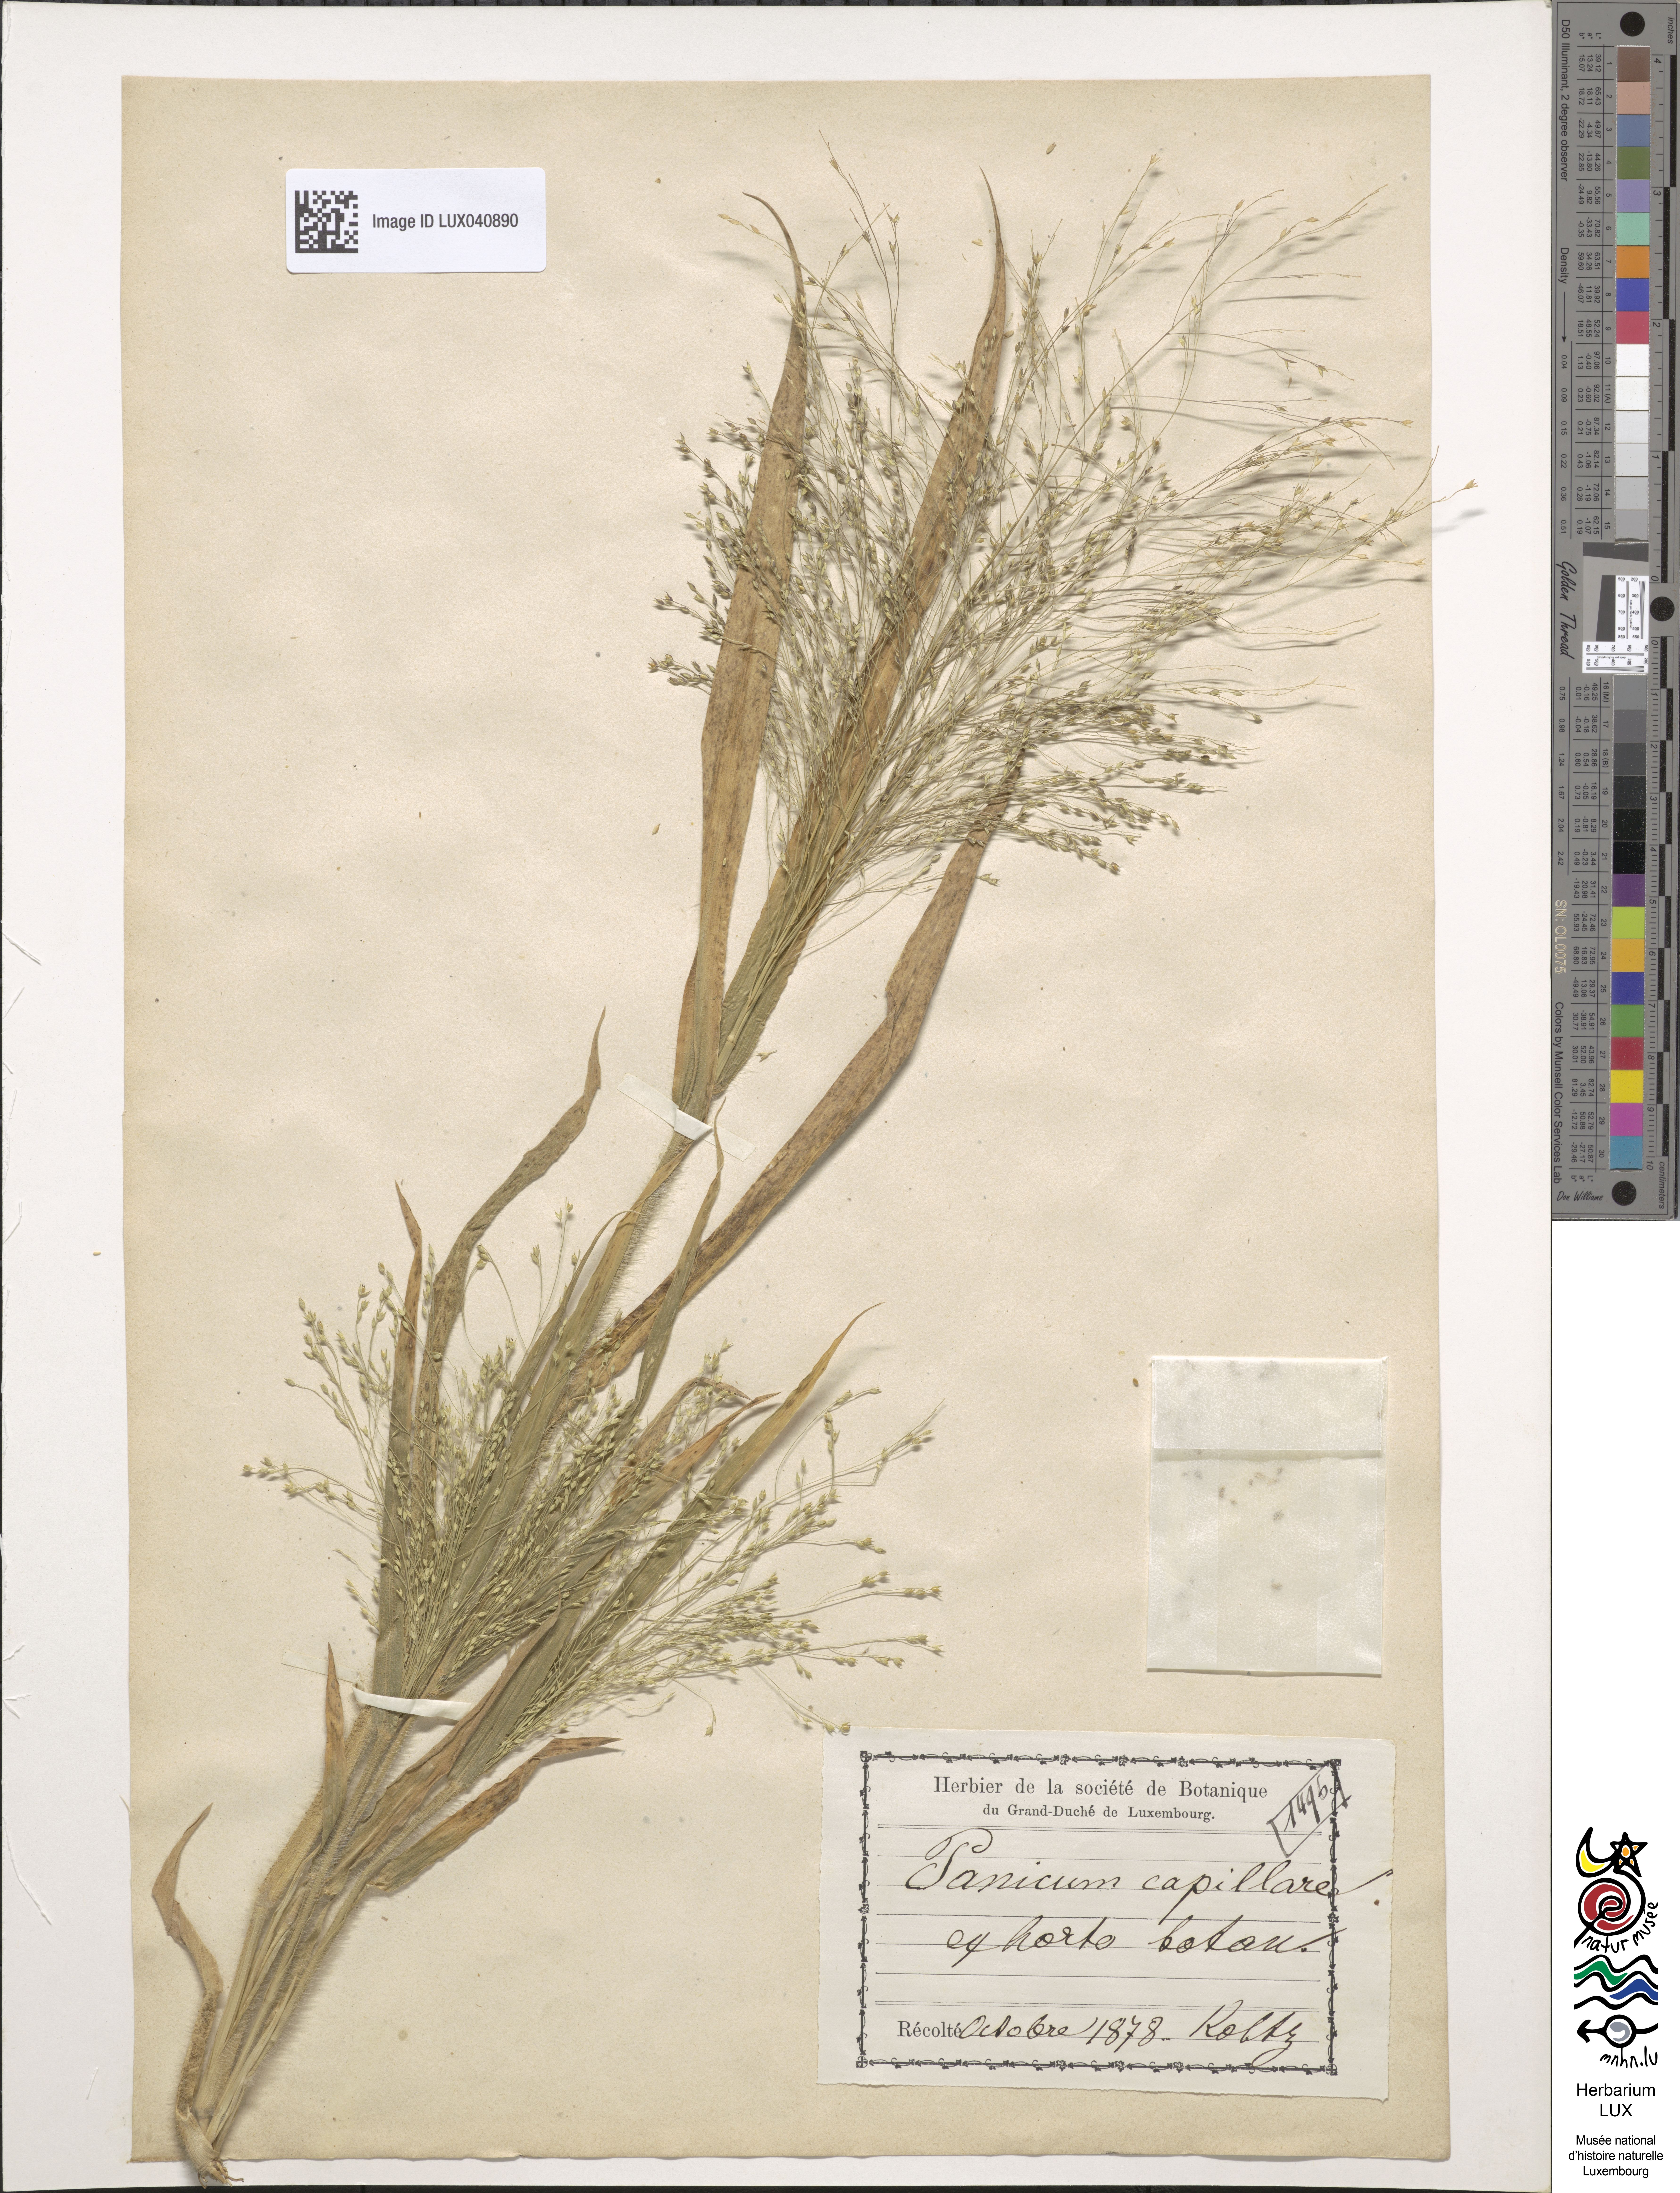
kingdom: Plantae
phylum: Tracheophyta
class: Liliopsida
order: Poales
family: Poaceae
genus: Panicum
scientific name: Panicum capillare
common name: Witch-grass
